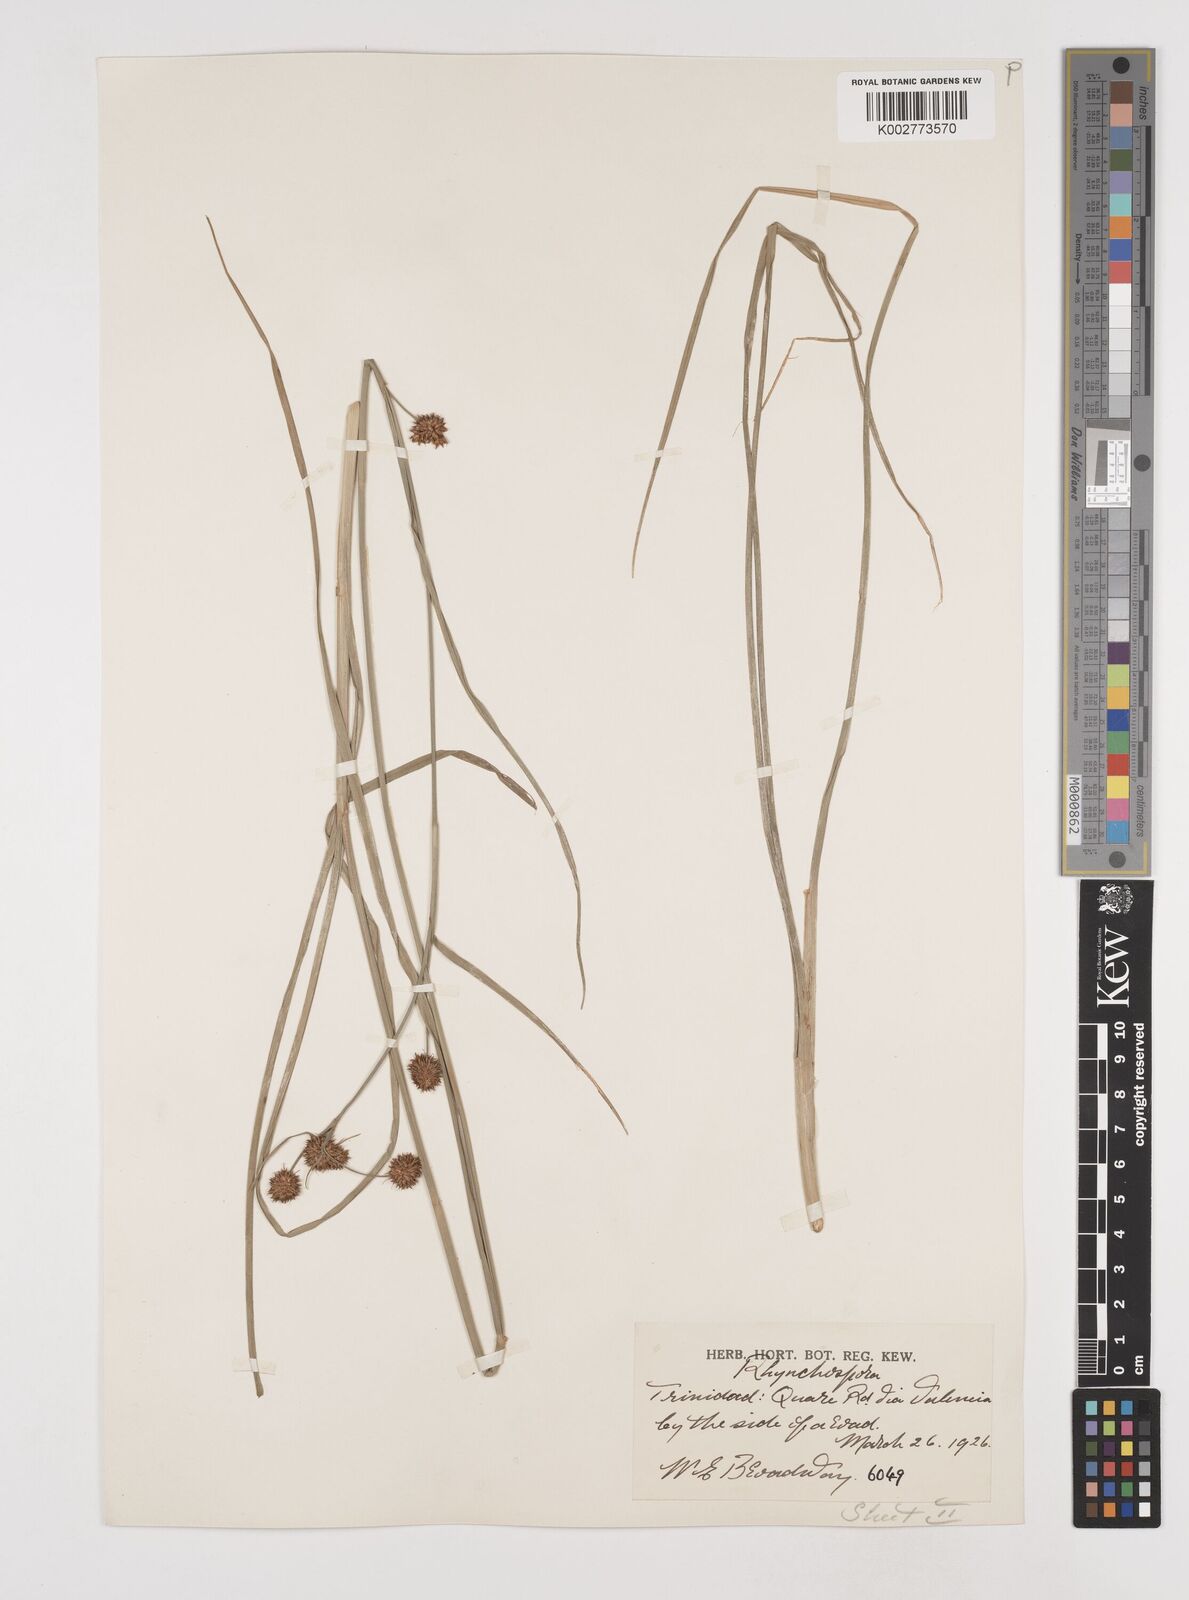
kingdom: Plantae
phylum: Tracheophyta
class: Liliopsida
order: Poales
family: Cyperaceae
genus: Rhynchospora
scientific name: Rhynchospora holoschoenoides
